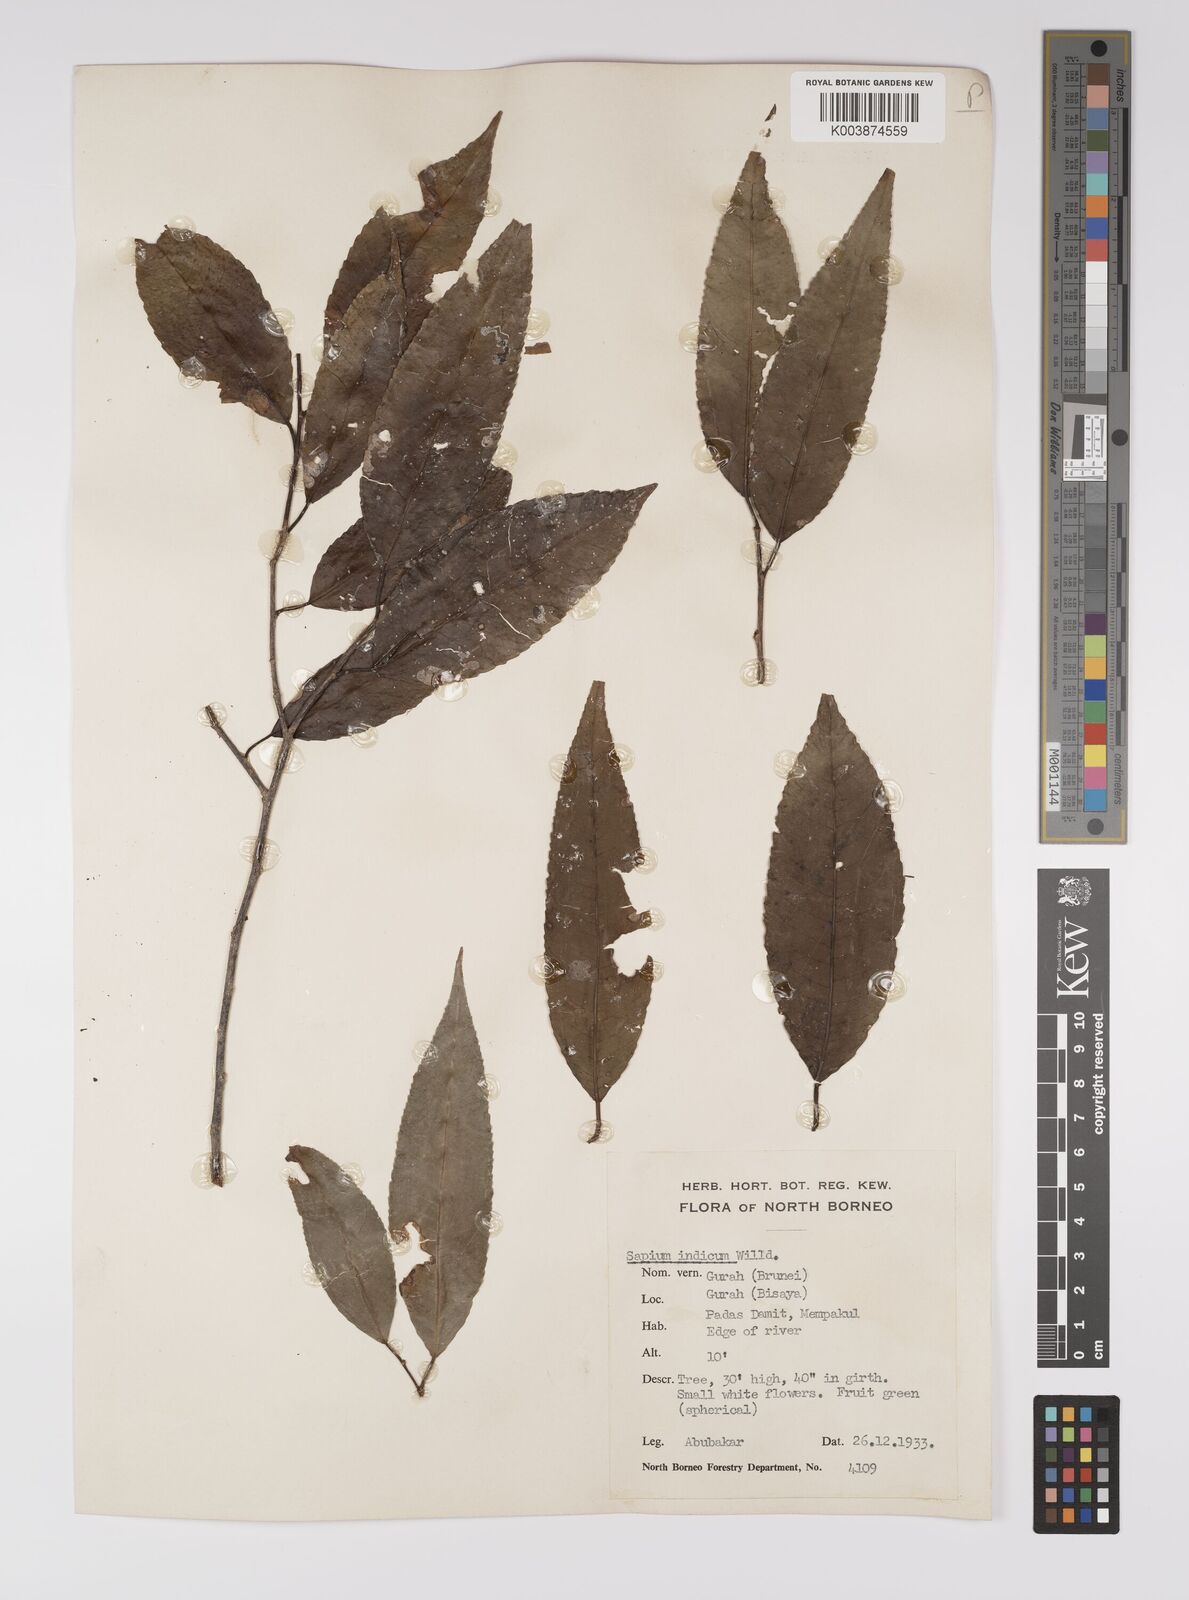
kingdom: Plantae
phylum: Tracheophyta
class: Magnoliopsida
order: Malpighiales
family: Euphorbiaceae
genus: Shirakiopsis
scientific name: Shirakiopsis indica
